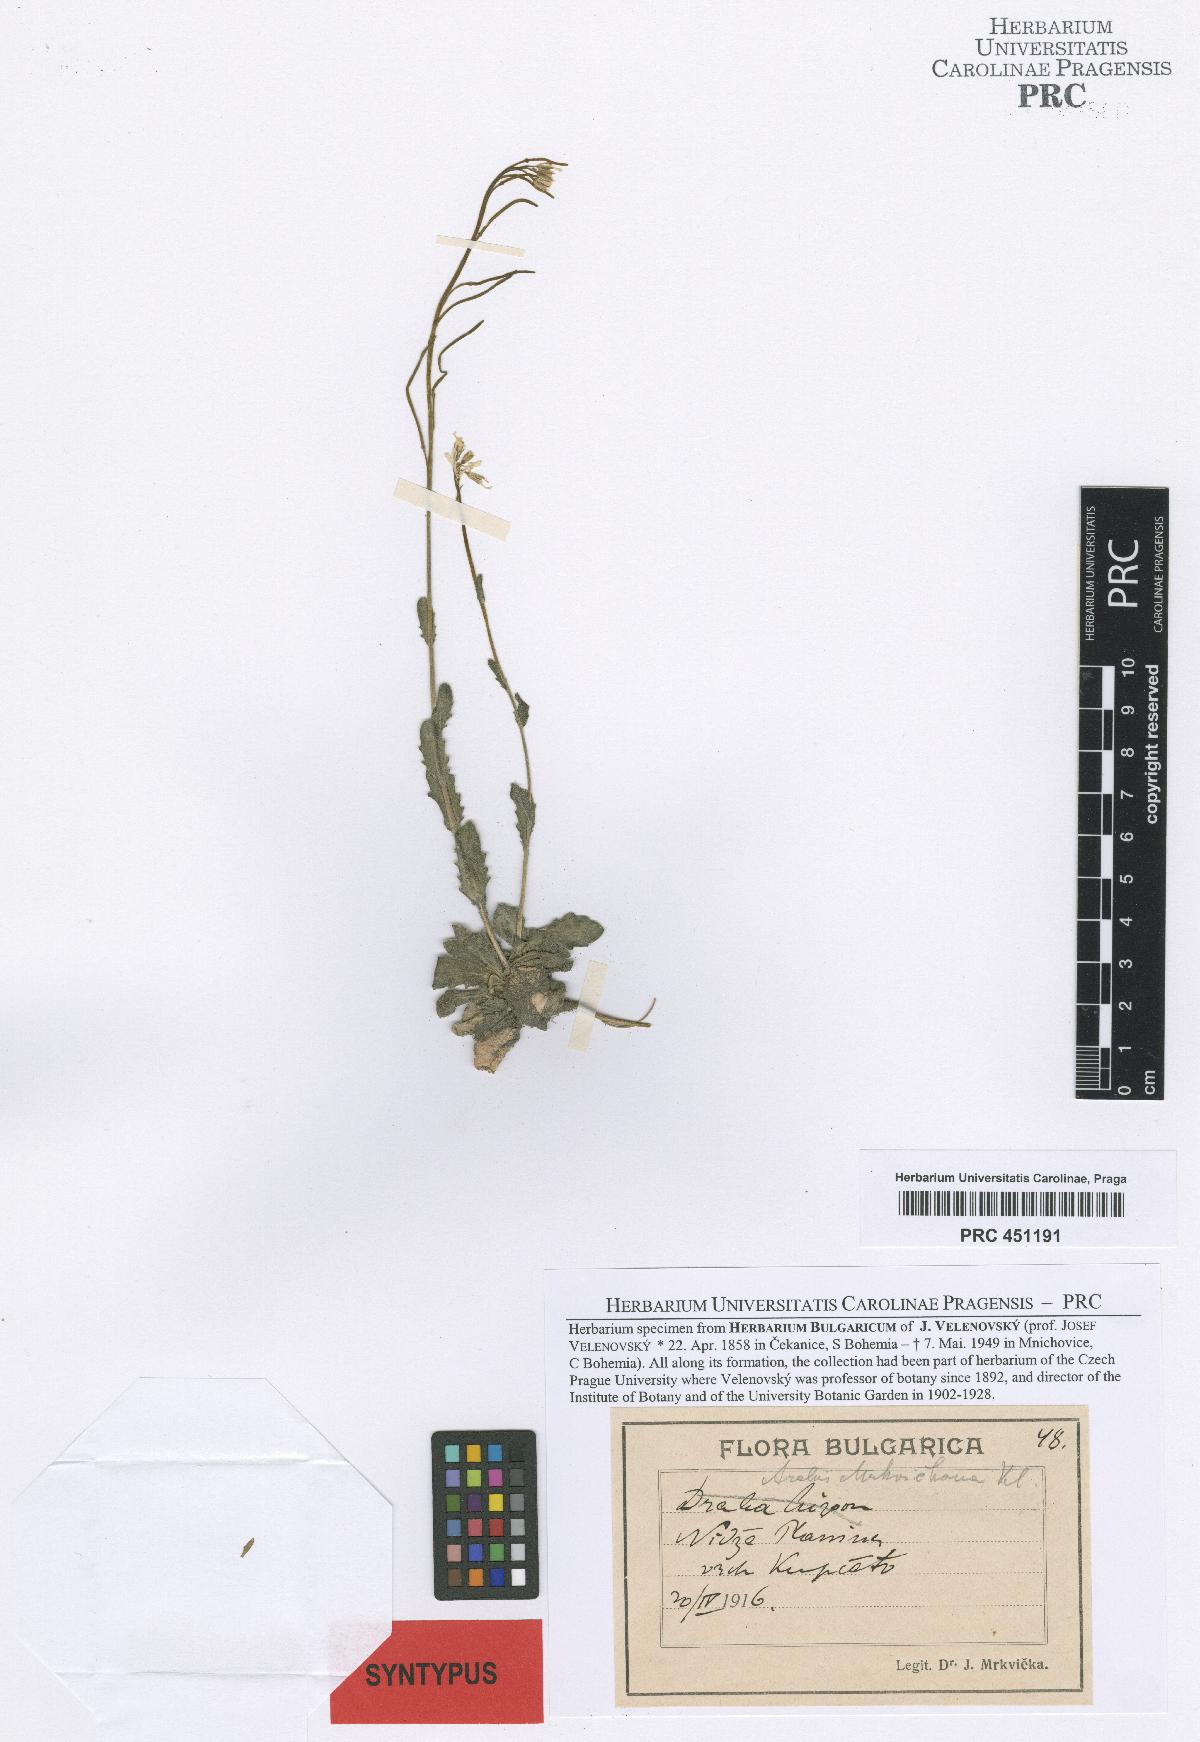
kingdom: Plantae
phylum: Tracheophyta
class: Magnoliopsida
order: Brassicales
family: Brassicaceae
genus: Arabis
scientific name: Arabis collina
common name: Rosy cress
